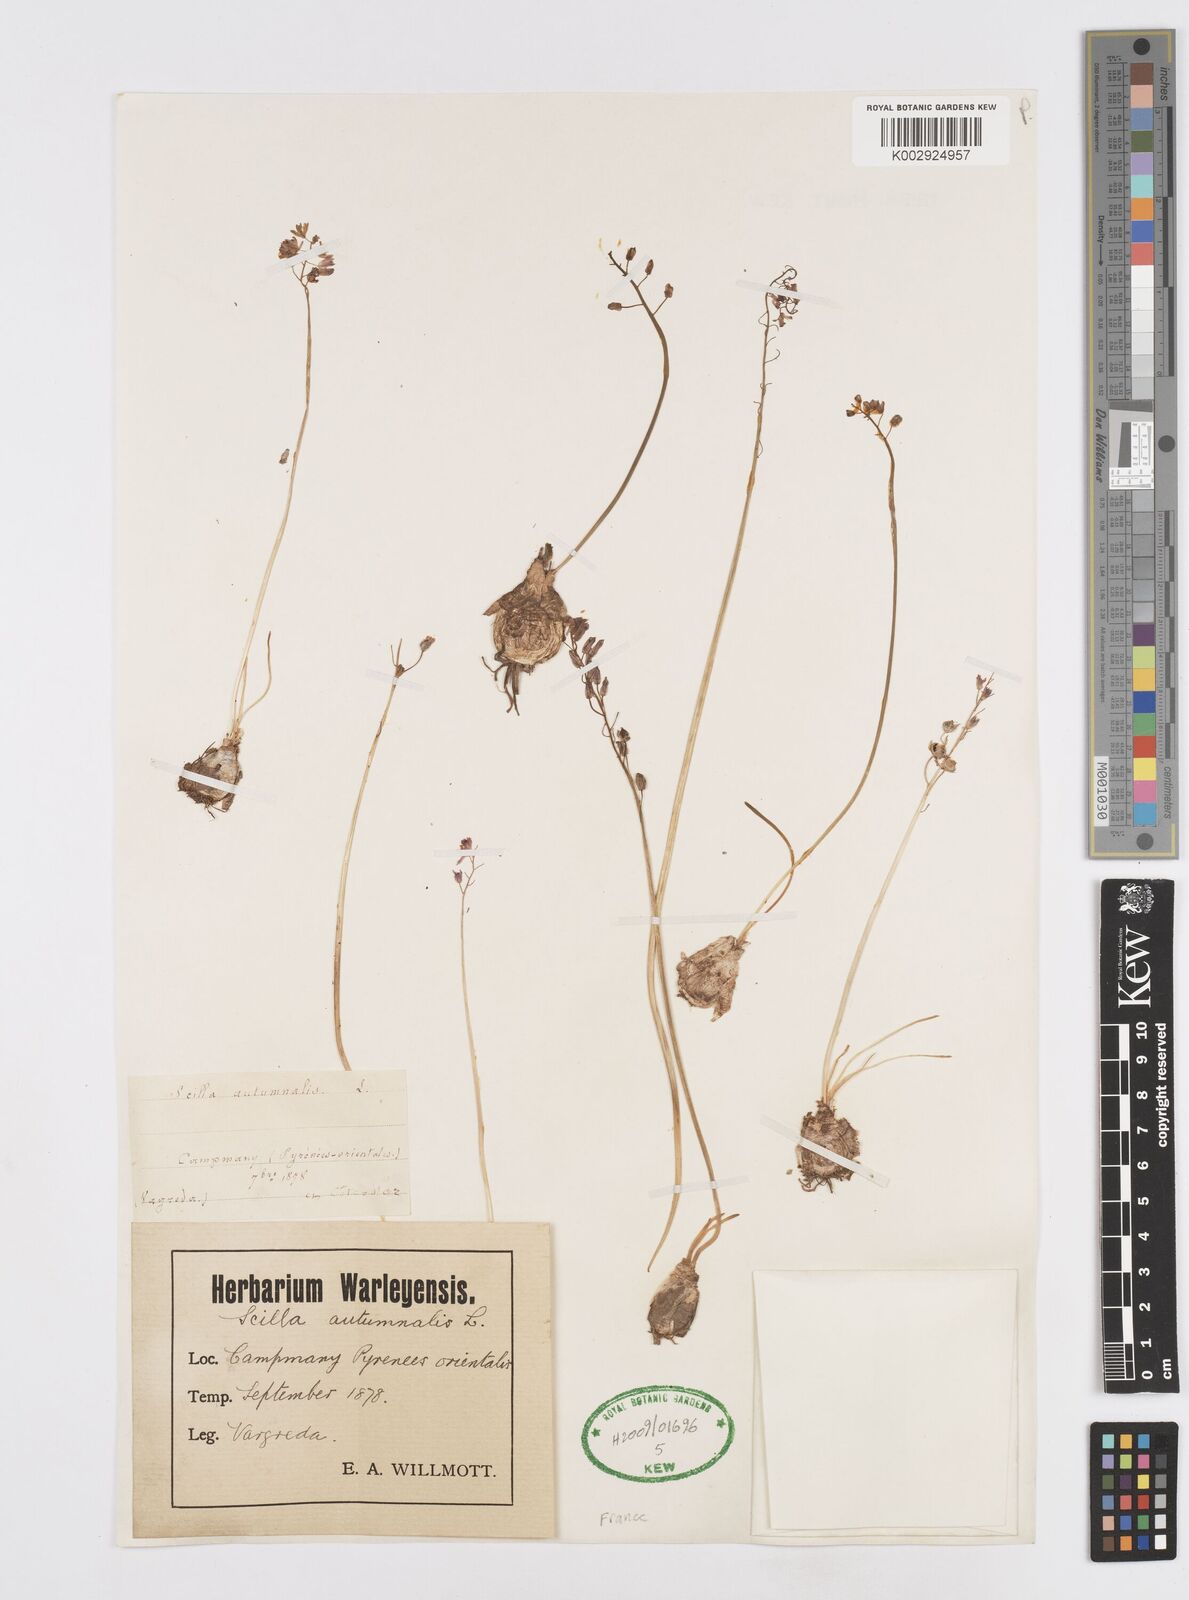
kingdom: Plantae
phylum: Tracheophyta
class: Liliopsida
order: Asparagales
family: Asparagaceae
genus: Prospero
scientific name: Prospero autumnale
